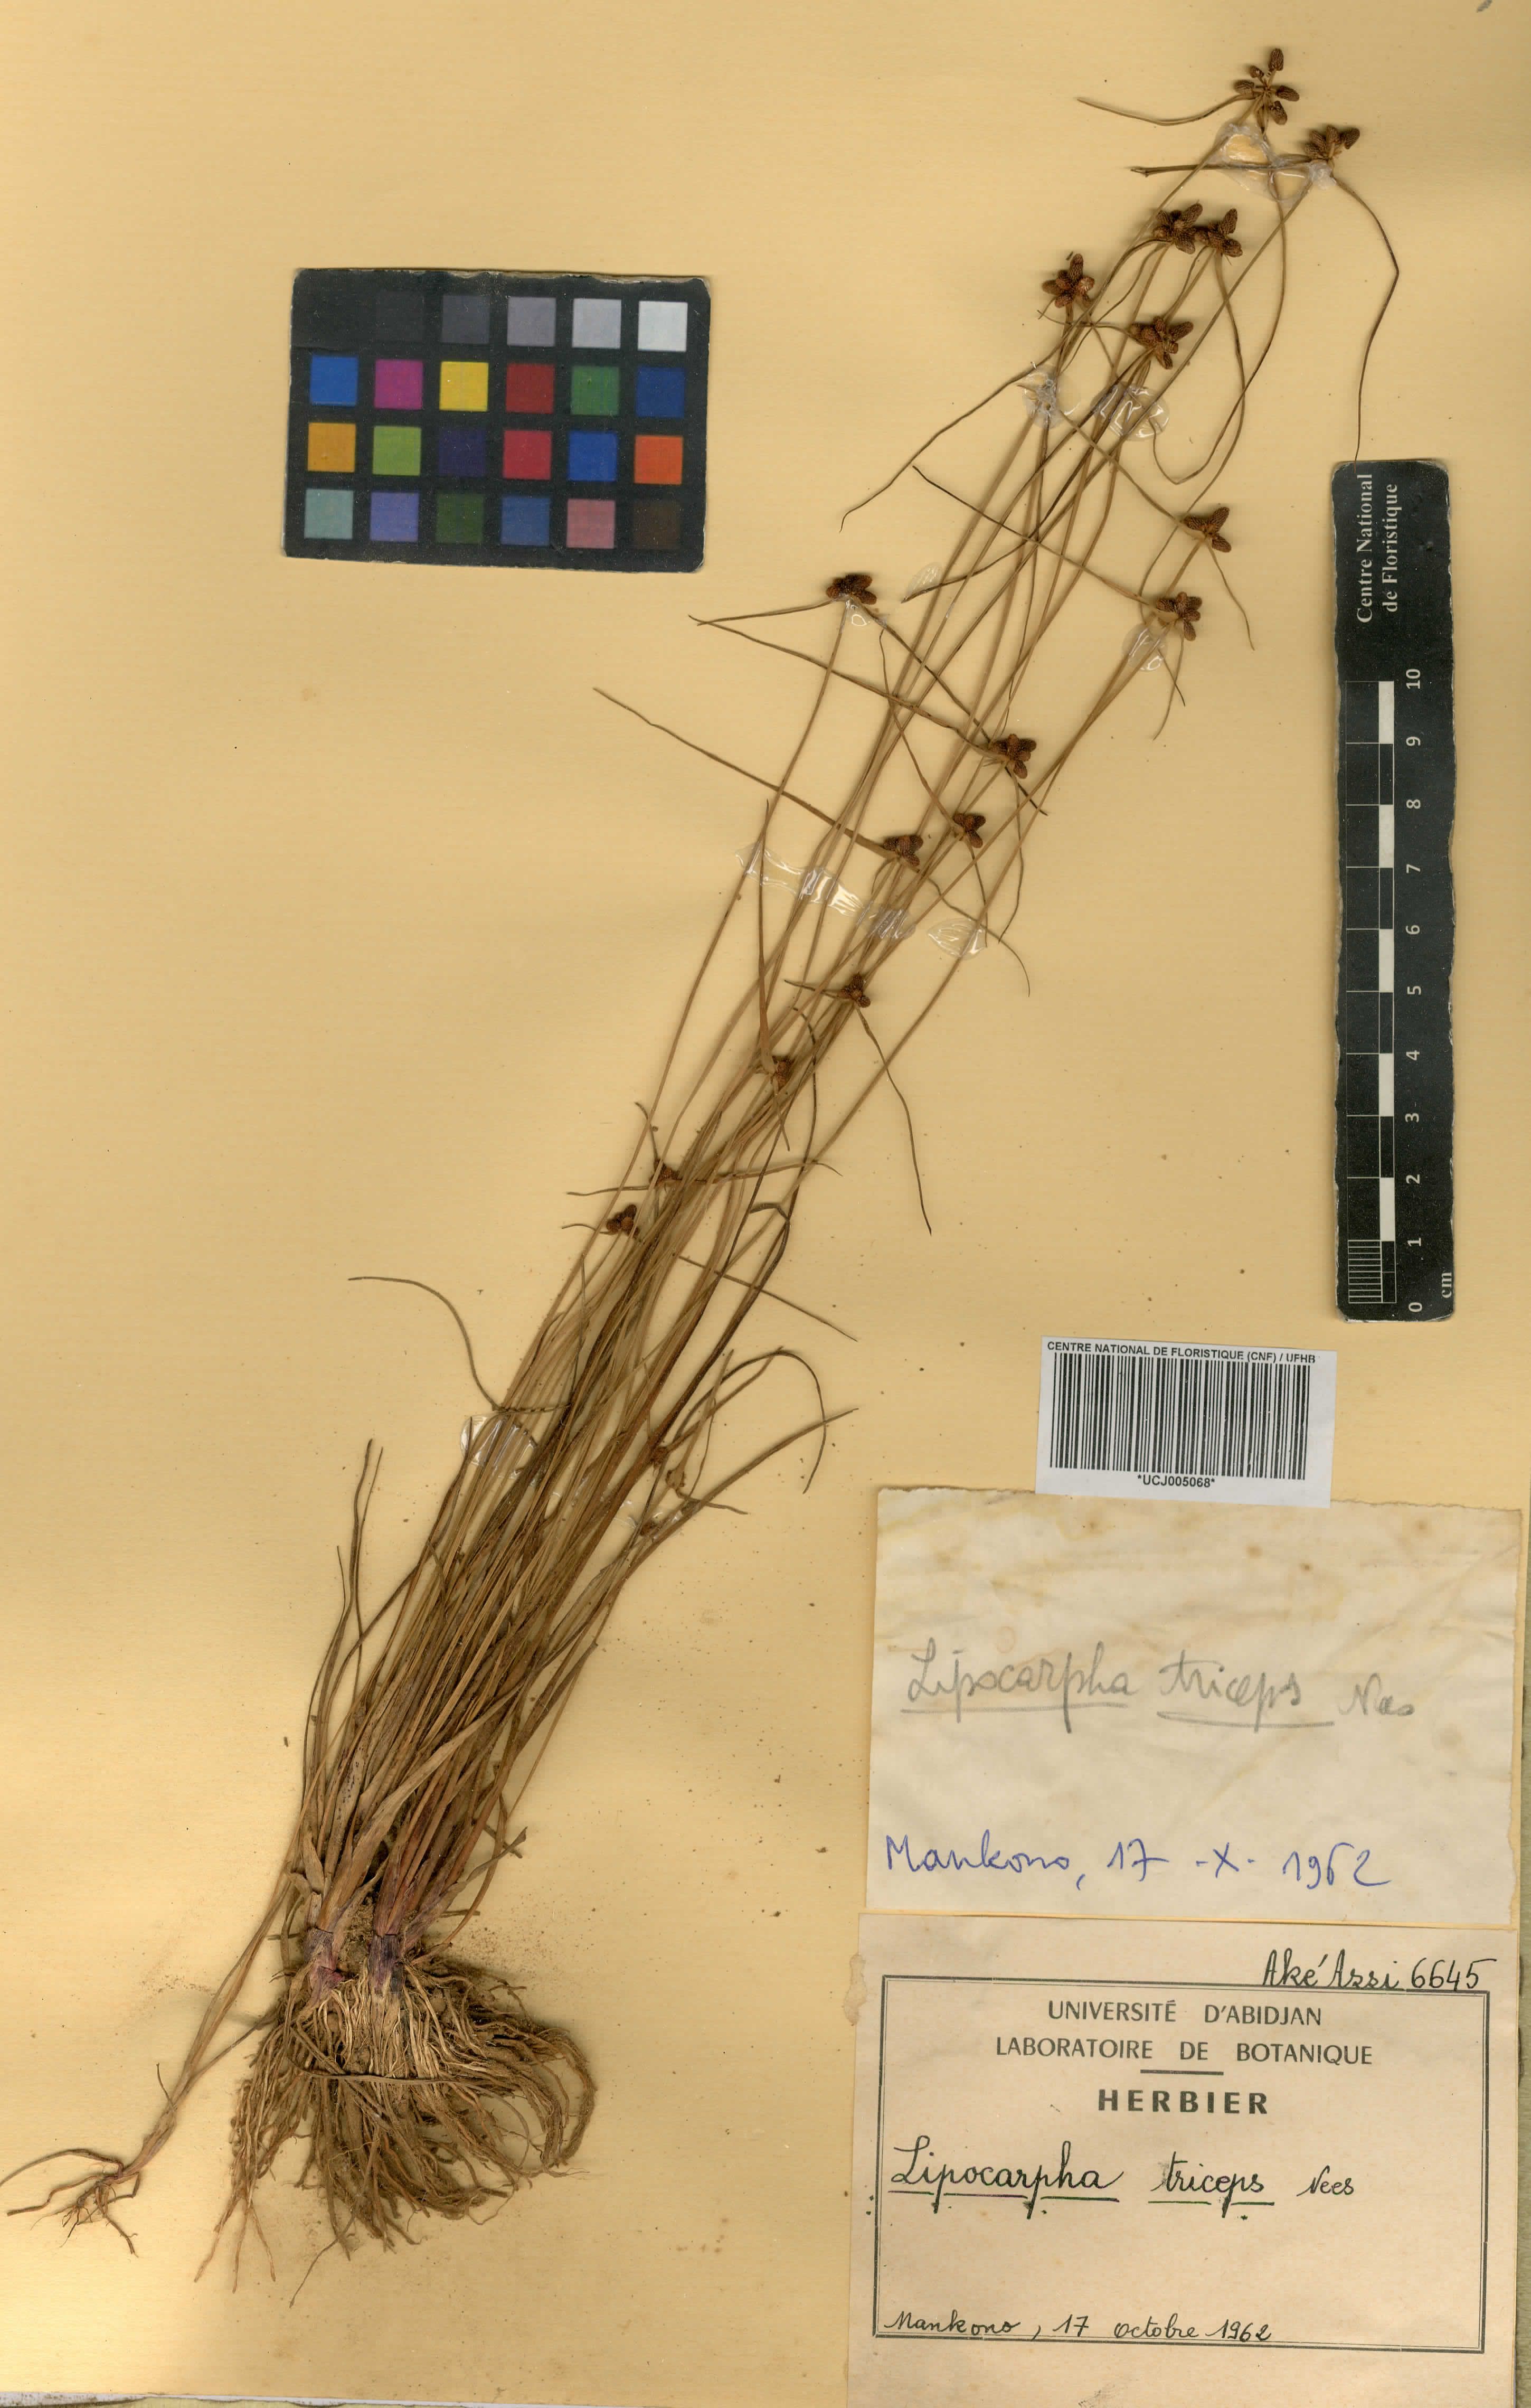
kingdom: Plantae
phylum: Tracheophyta
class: Liliopsida
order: Poales
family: Cyperaceae
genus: Cyperus
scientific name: Cyperus ceylanicus
